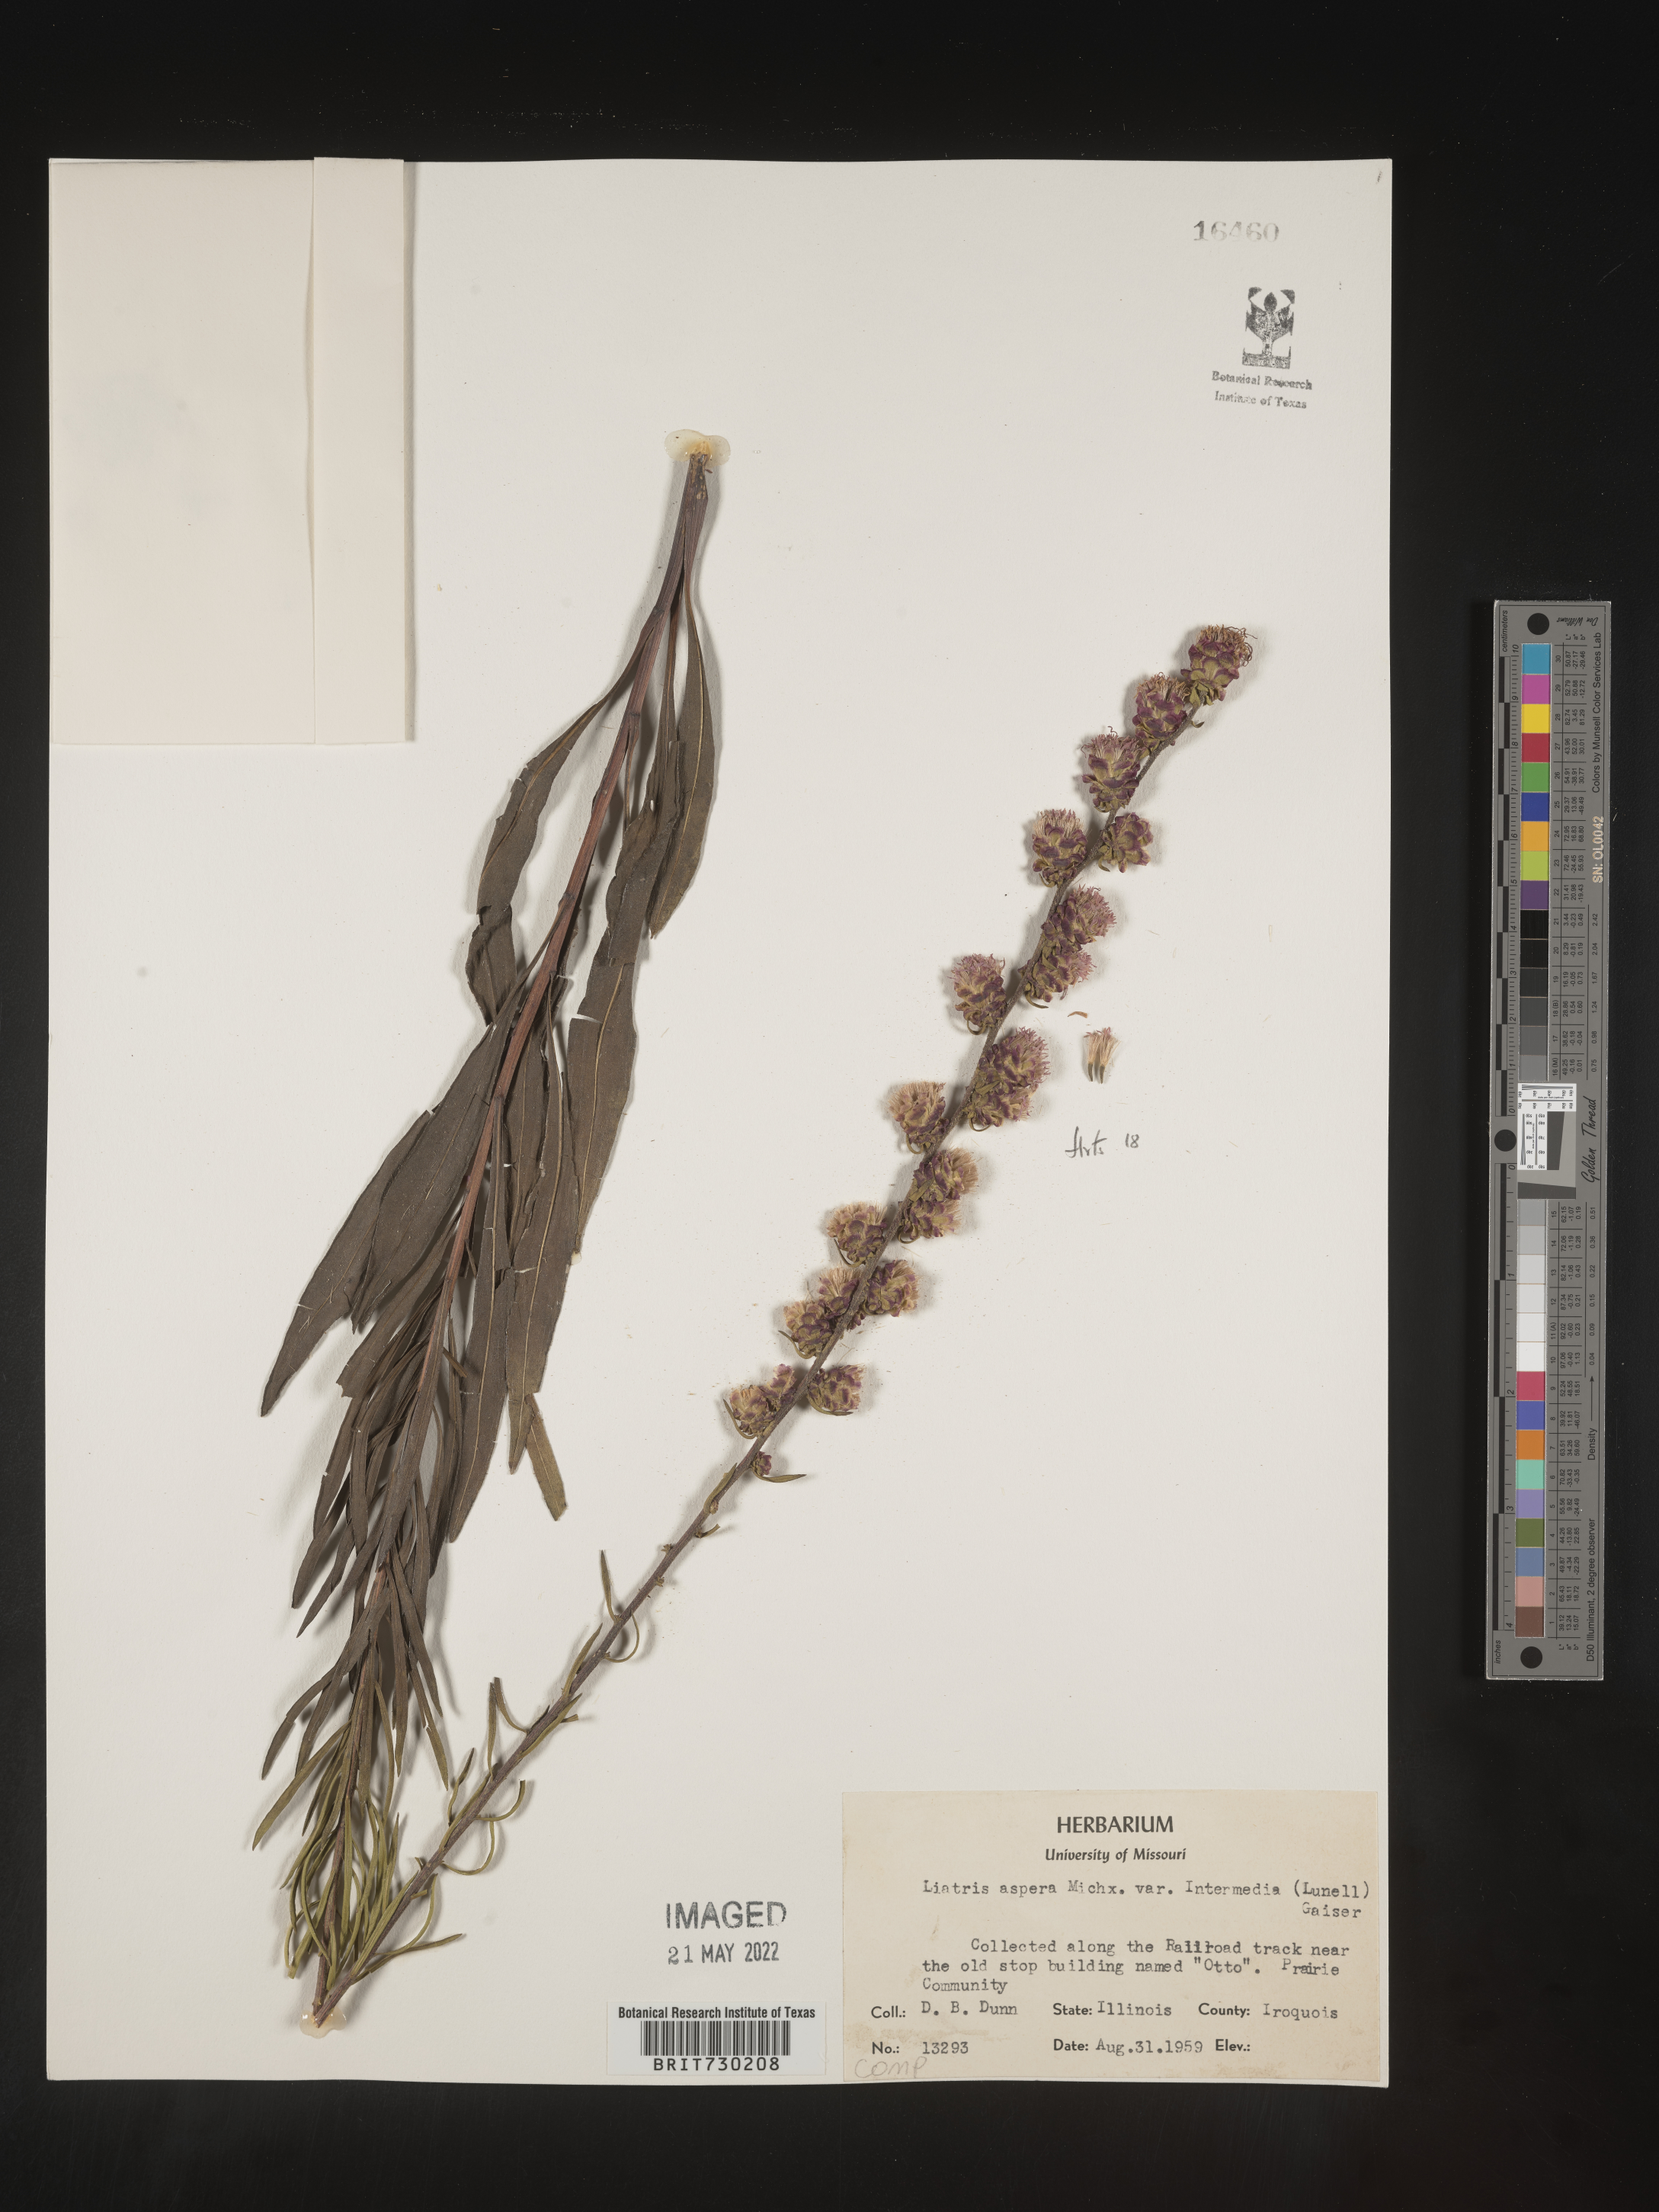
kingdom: Plantae
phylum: Tracheophyta
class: Magnoliopsida
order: Asterales
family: Asteraceae
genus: Liatris
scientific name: Liatris aspera
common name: Lacerate blazing-star
